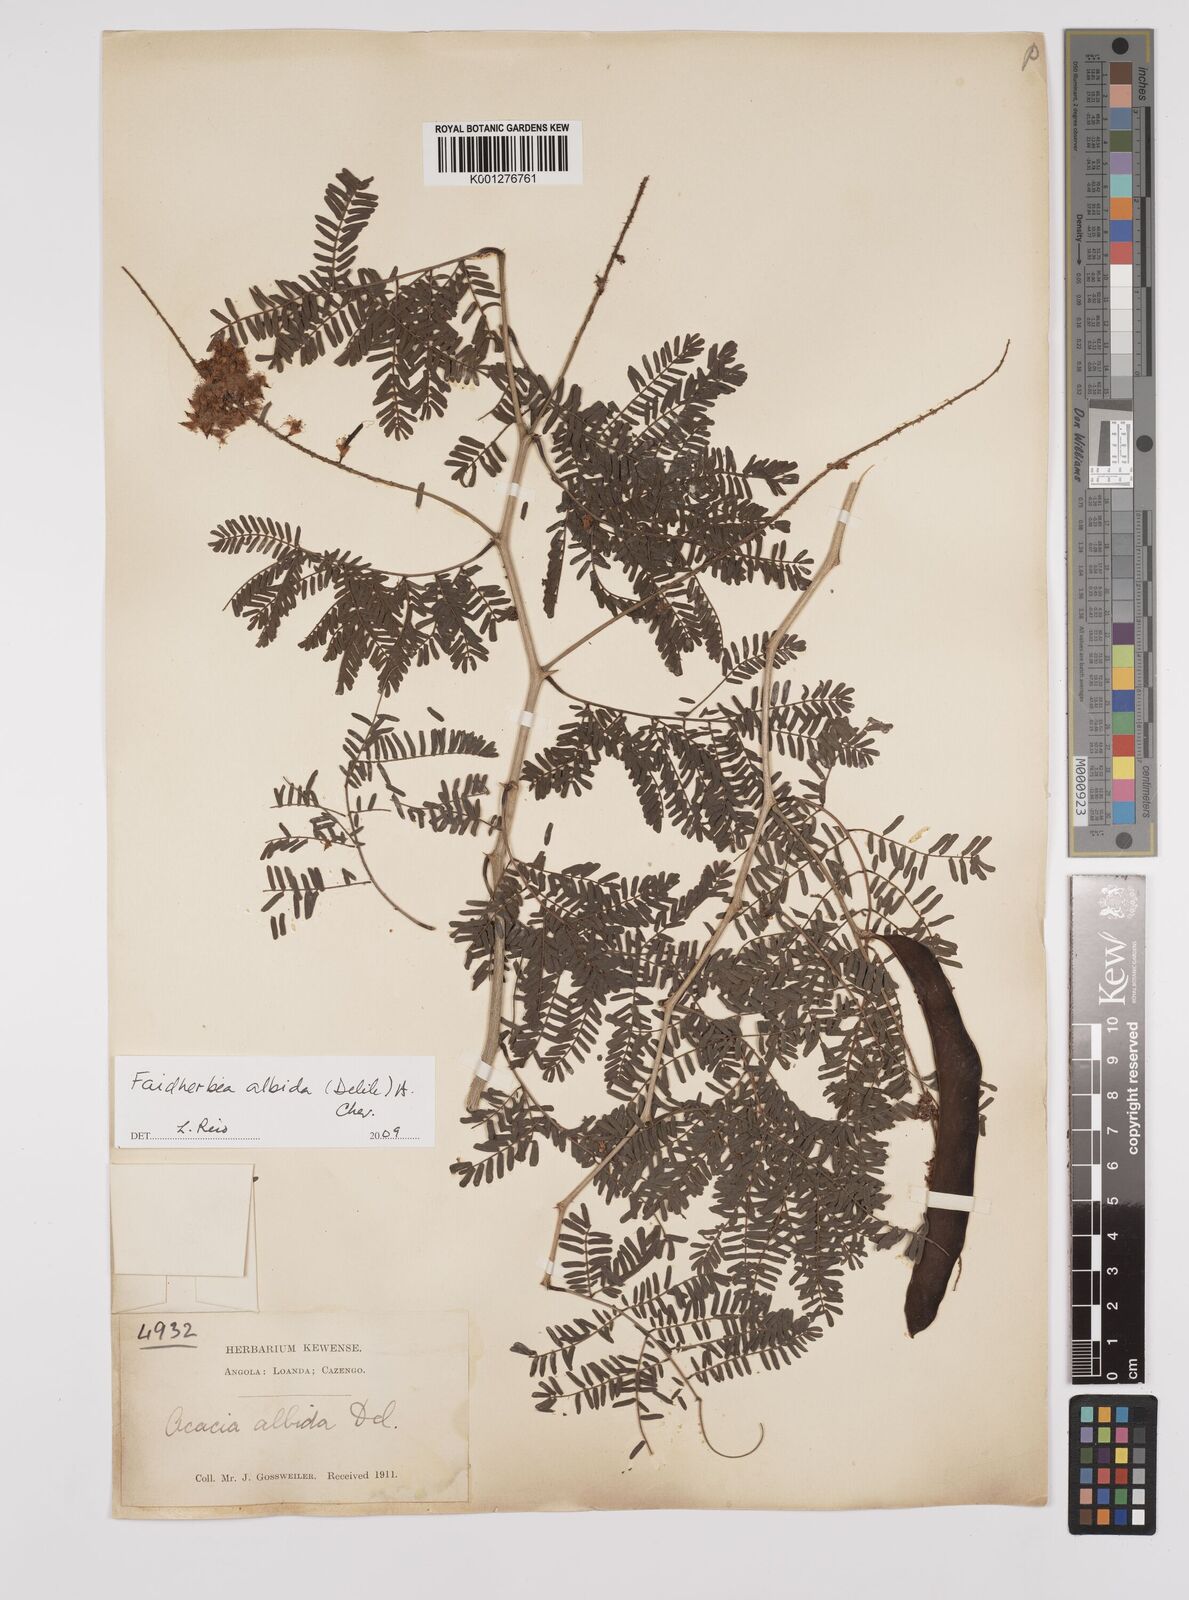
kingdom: Plantae
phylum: Tracheophyta
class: Magnoliopsida
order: Fabales
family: Fabaceae
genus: Faidherbia
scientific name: Faidherbia albida
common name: Anatree
